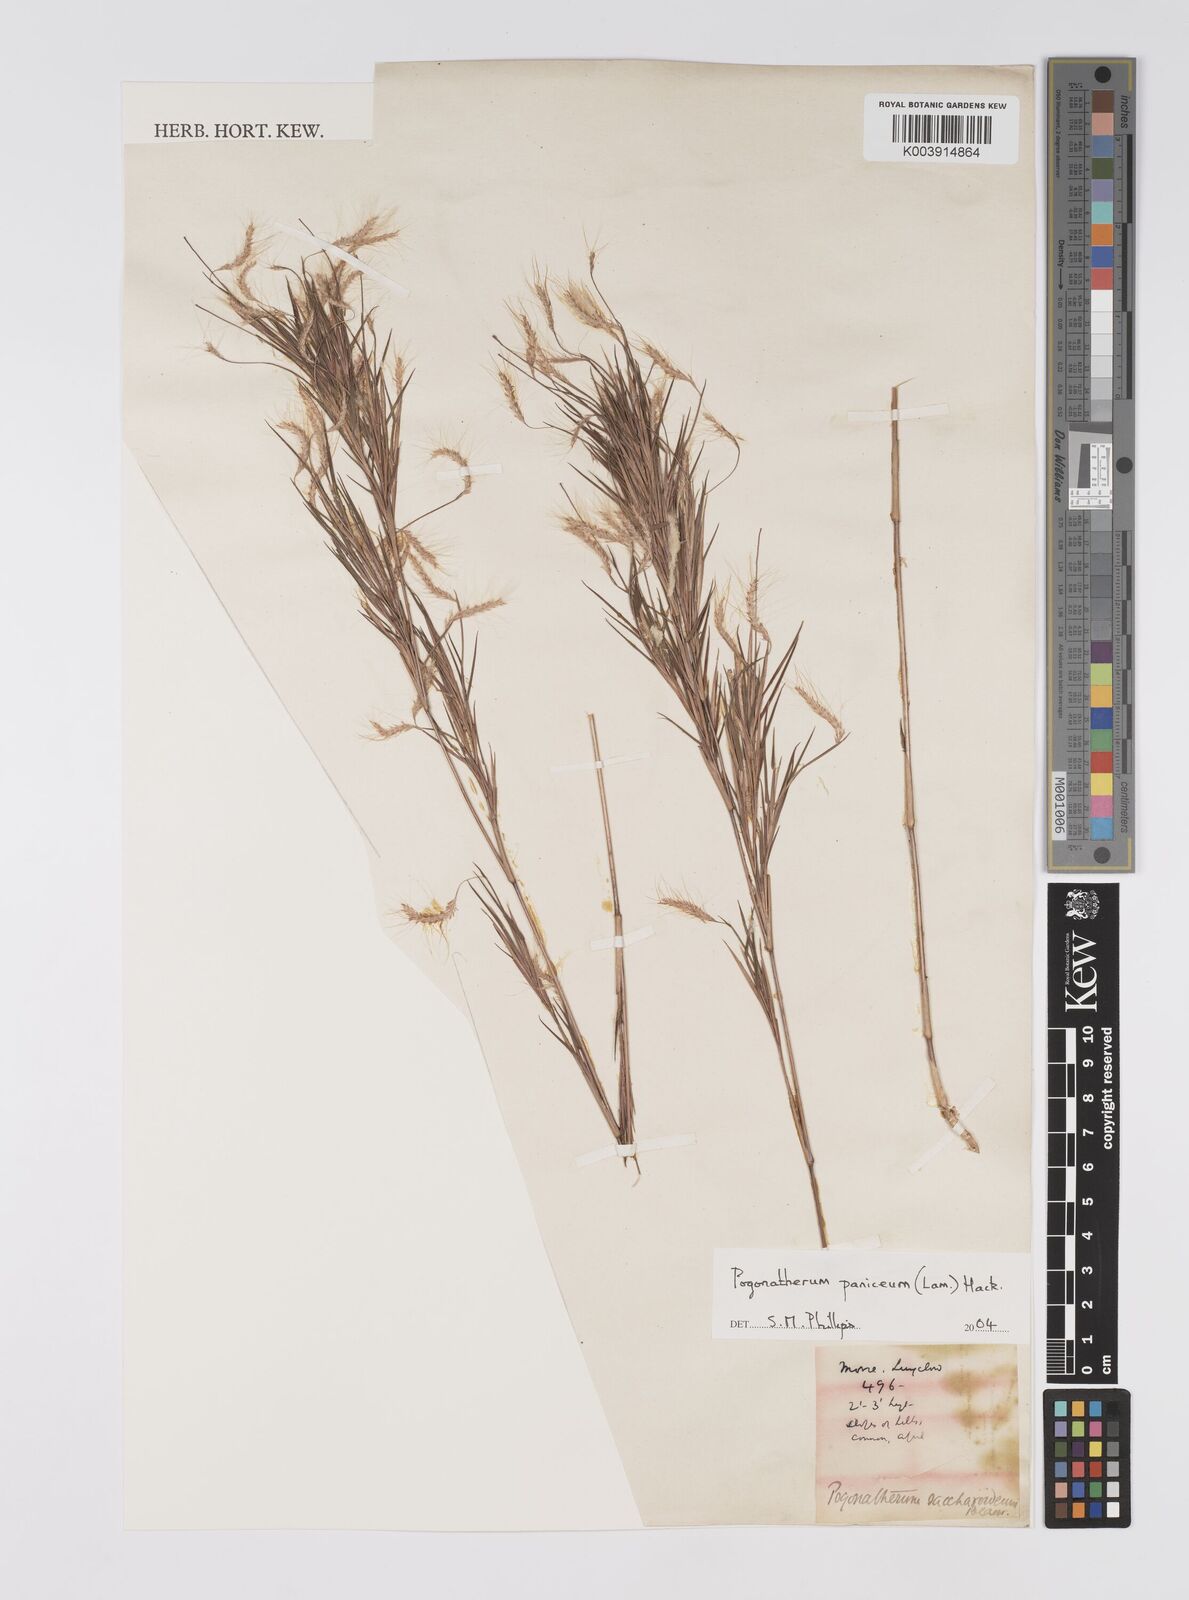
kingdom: Plantae
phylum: Tracheophyta
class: Liliopsida
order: Poales
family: Poaceae
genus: Pogonatherum
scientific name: Pogonatherum paniceum
